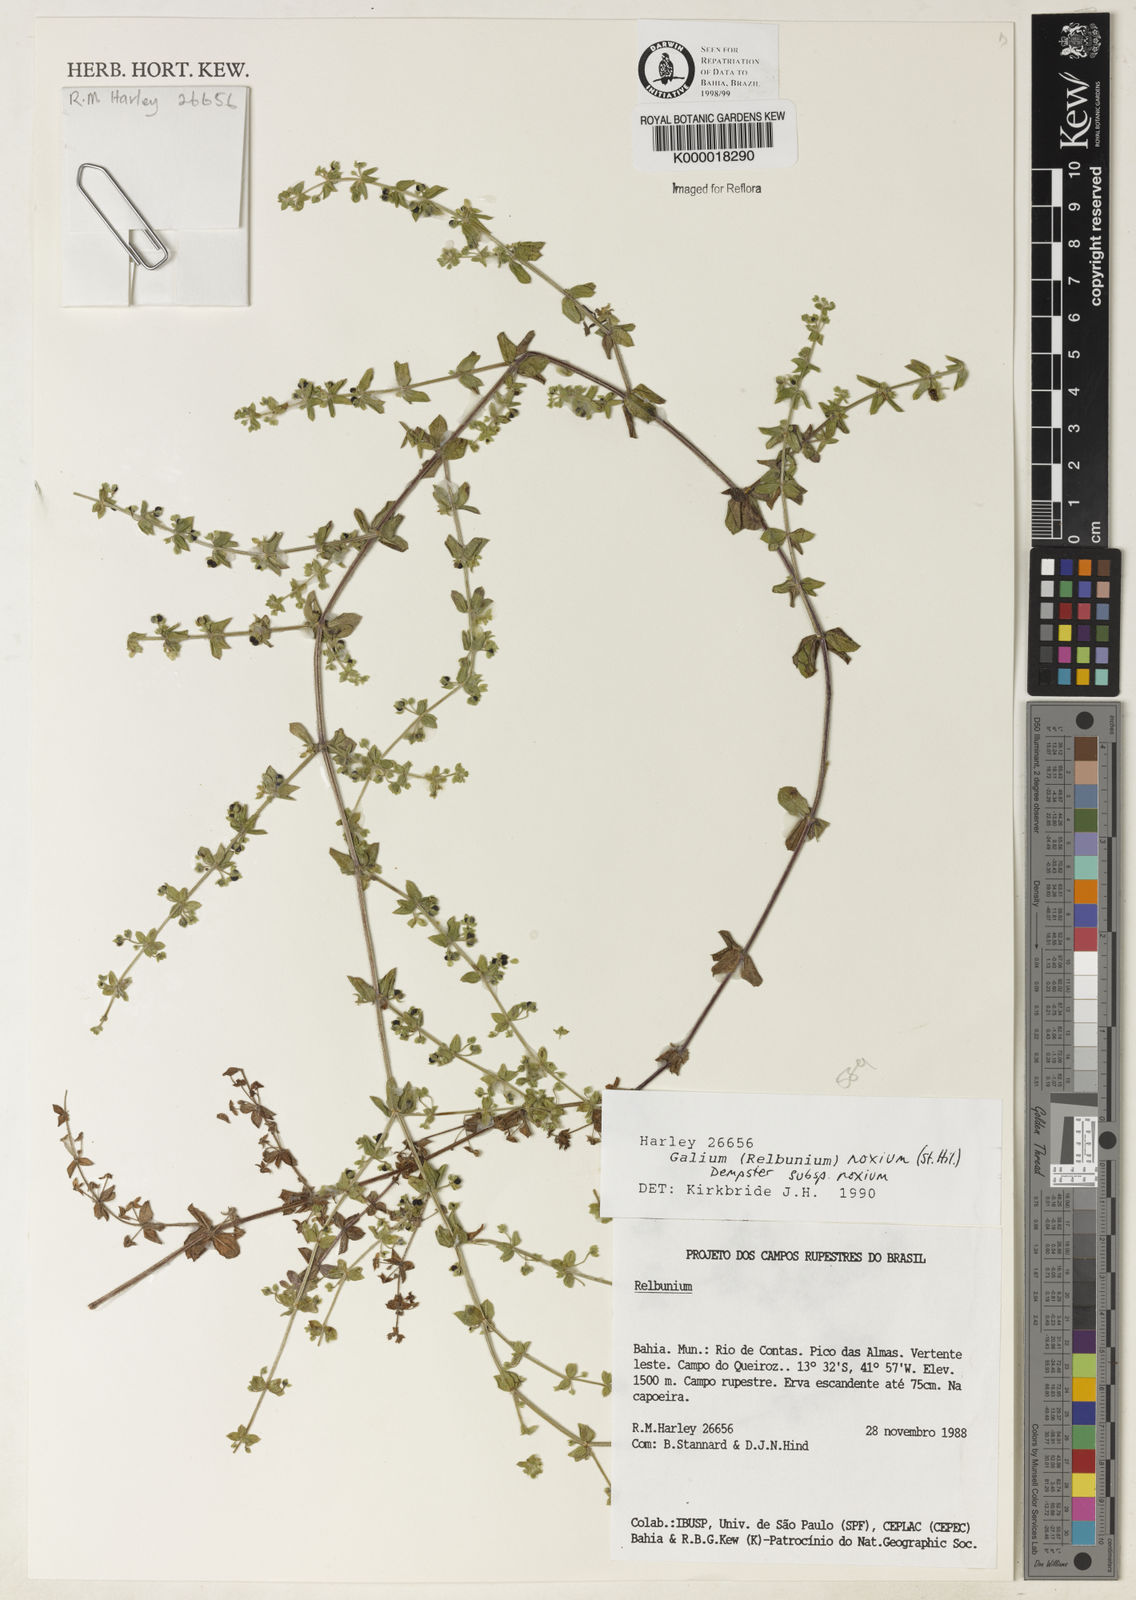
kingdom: Plantae
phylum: Tracheophyta
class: Magnoliopsida
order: Gentianales
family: Rubiaceae
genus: Galium
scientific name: Galium noxium
